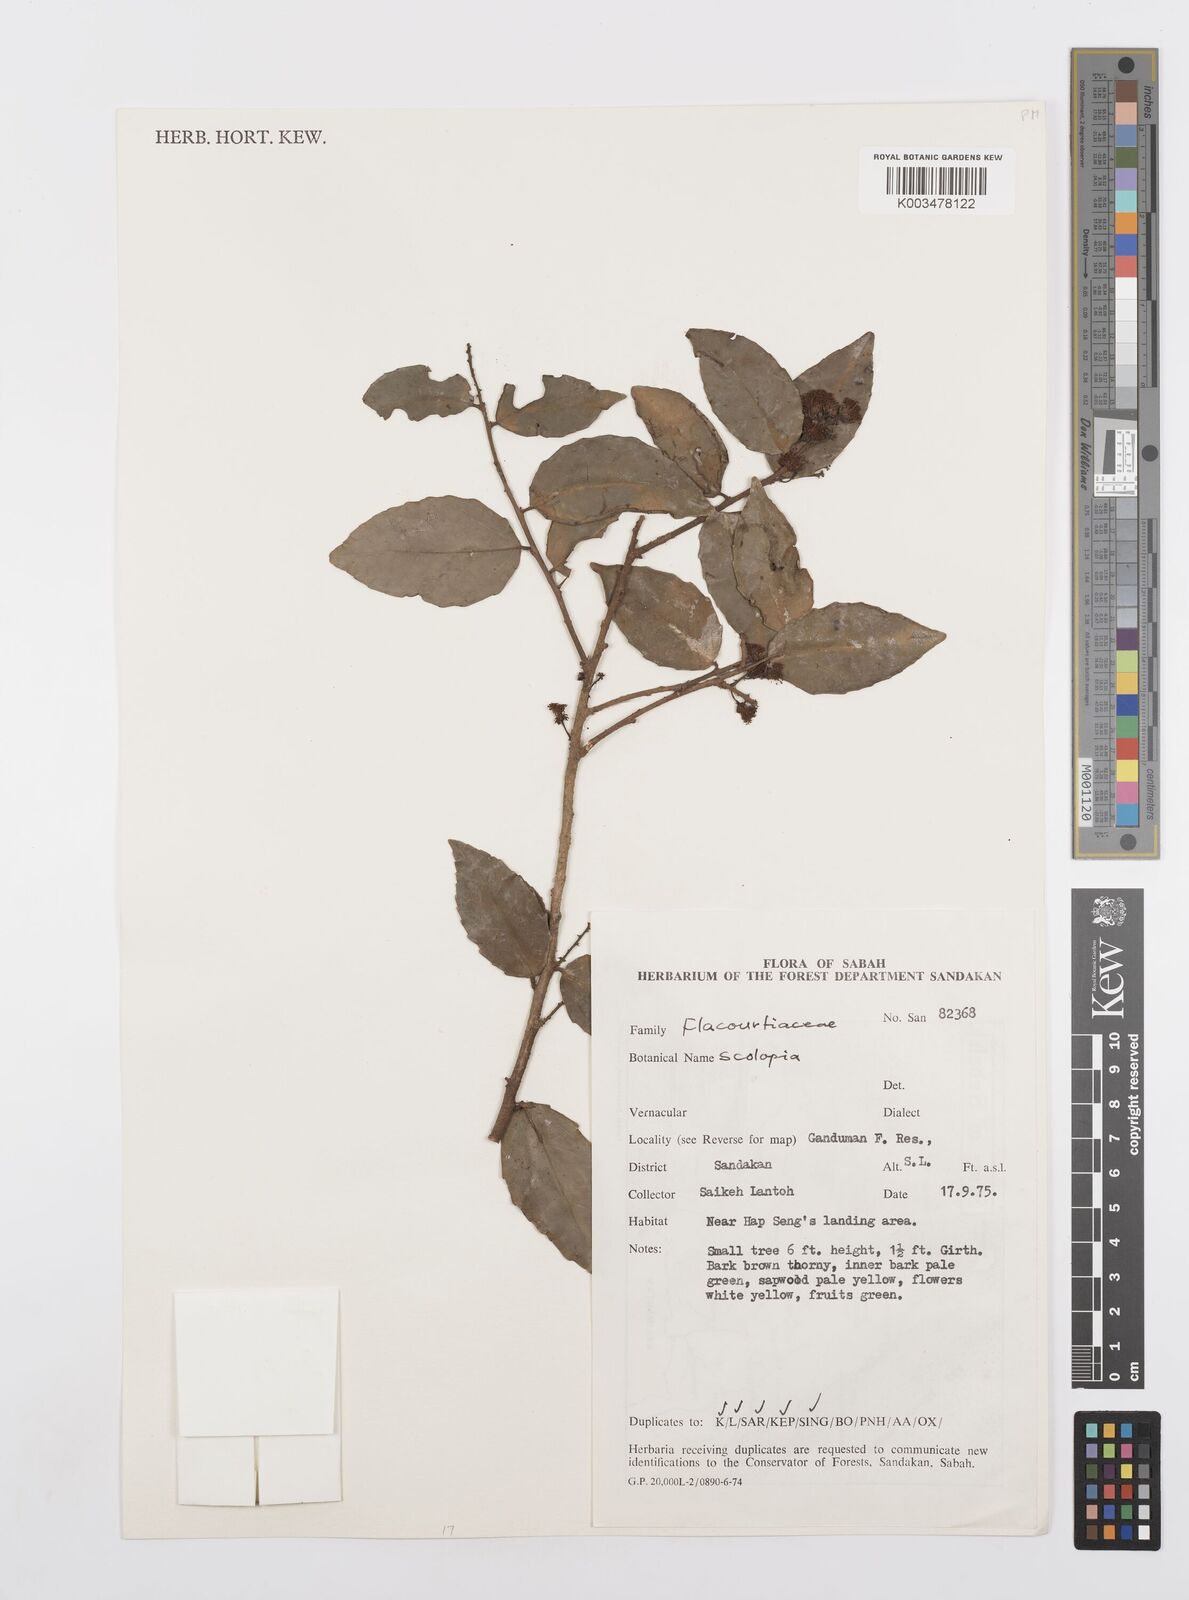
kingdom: Plantae
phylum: Tracheophyta
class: Magnoliopsida
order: Malpighiales
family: Salicaceae
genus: Scolopia
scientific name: Scolopia
